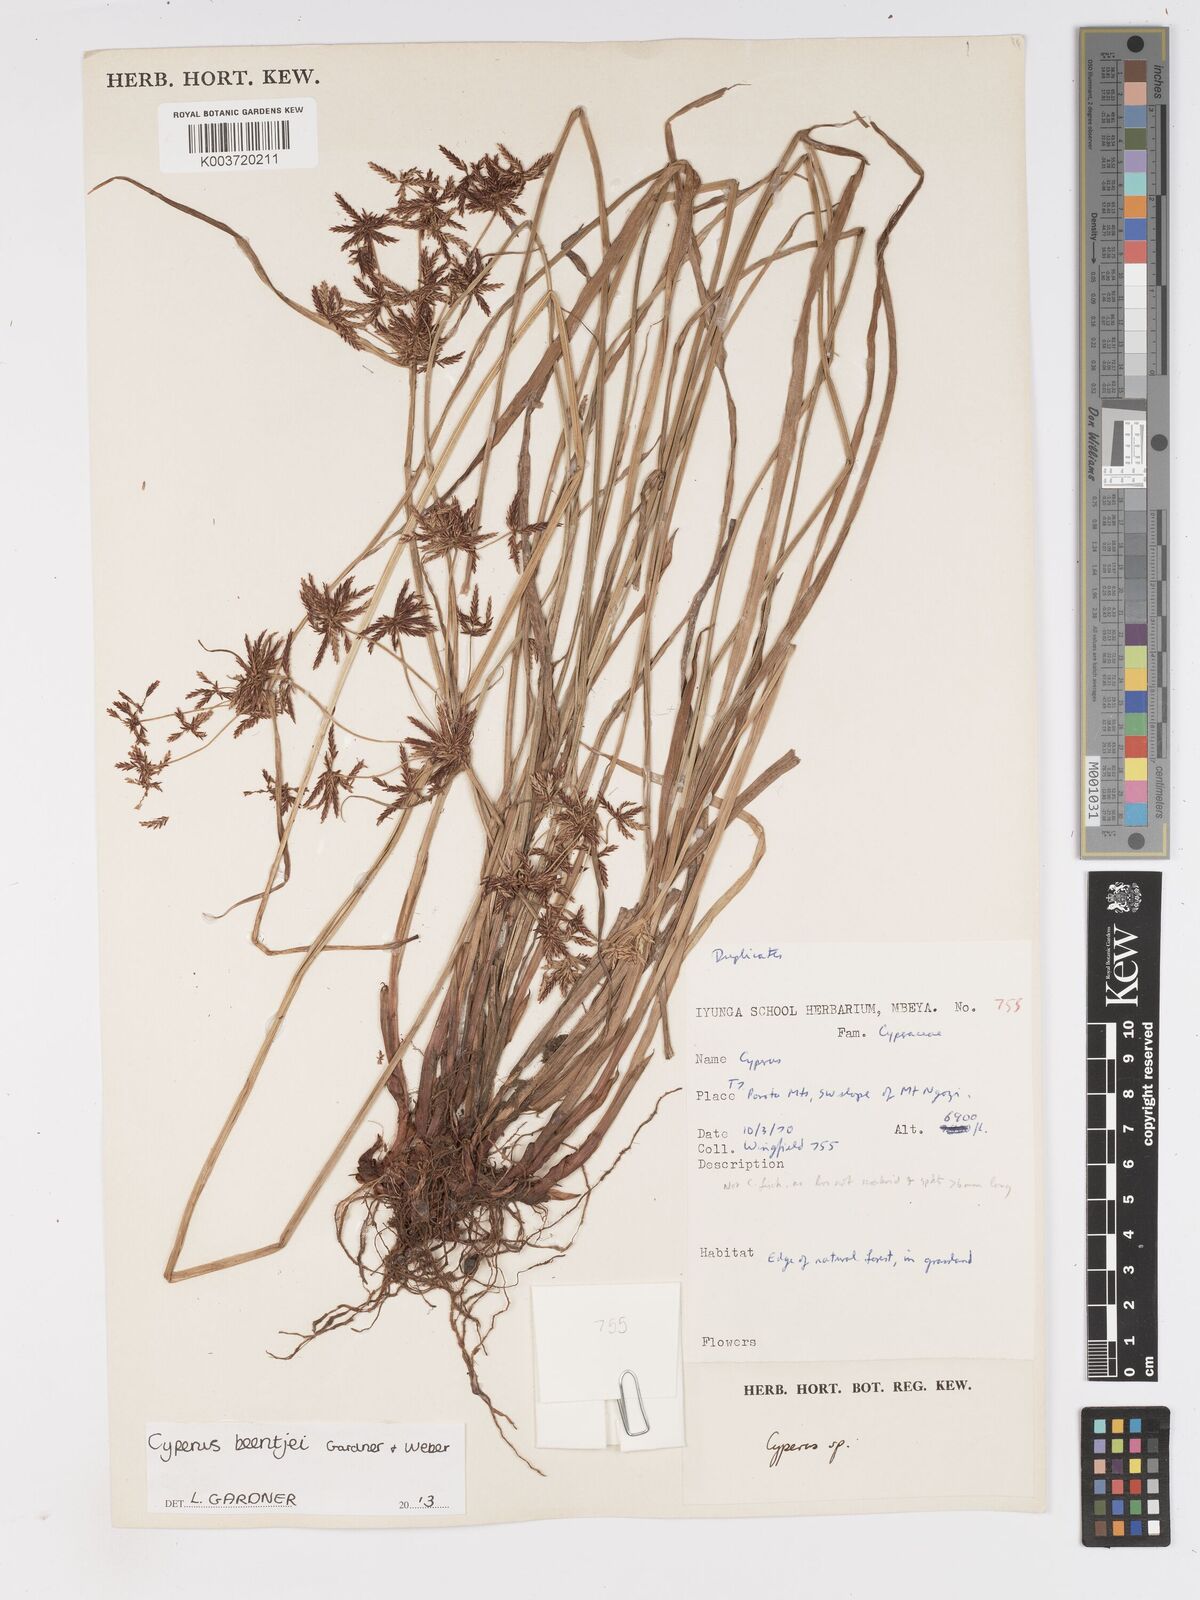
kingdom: Plantae
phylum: Tracheophyta
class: Liliopsida
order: Poales
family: Cyperaceae
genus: Cyperus
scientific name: Cyperus beentjei
